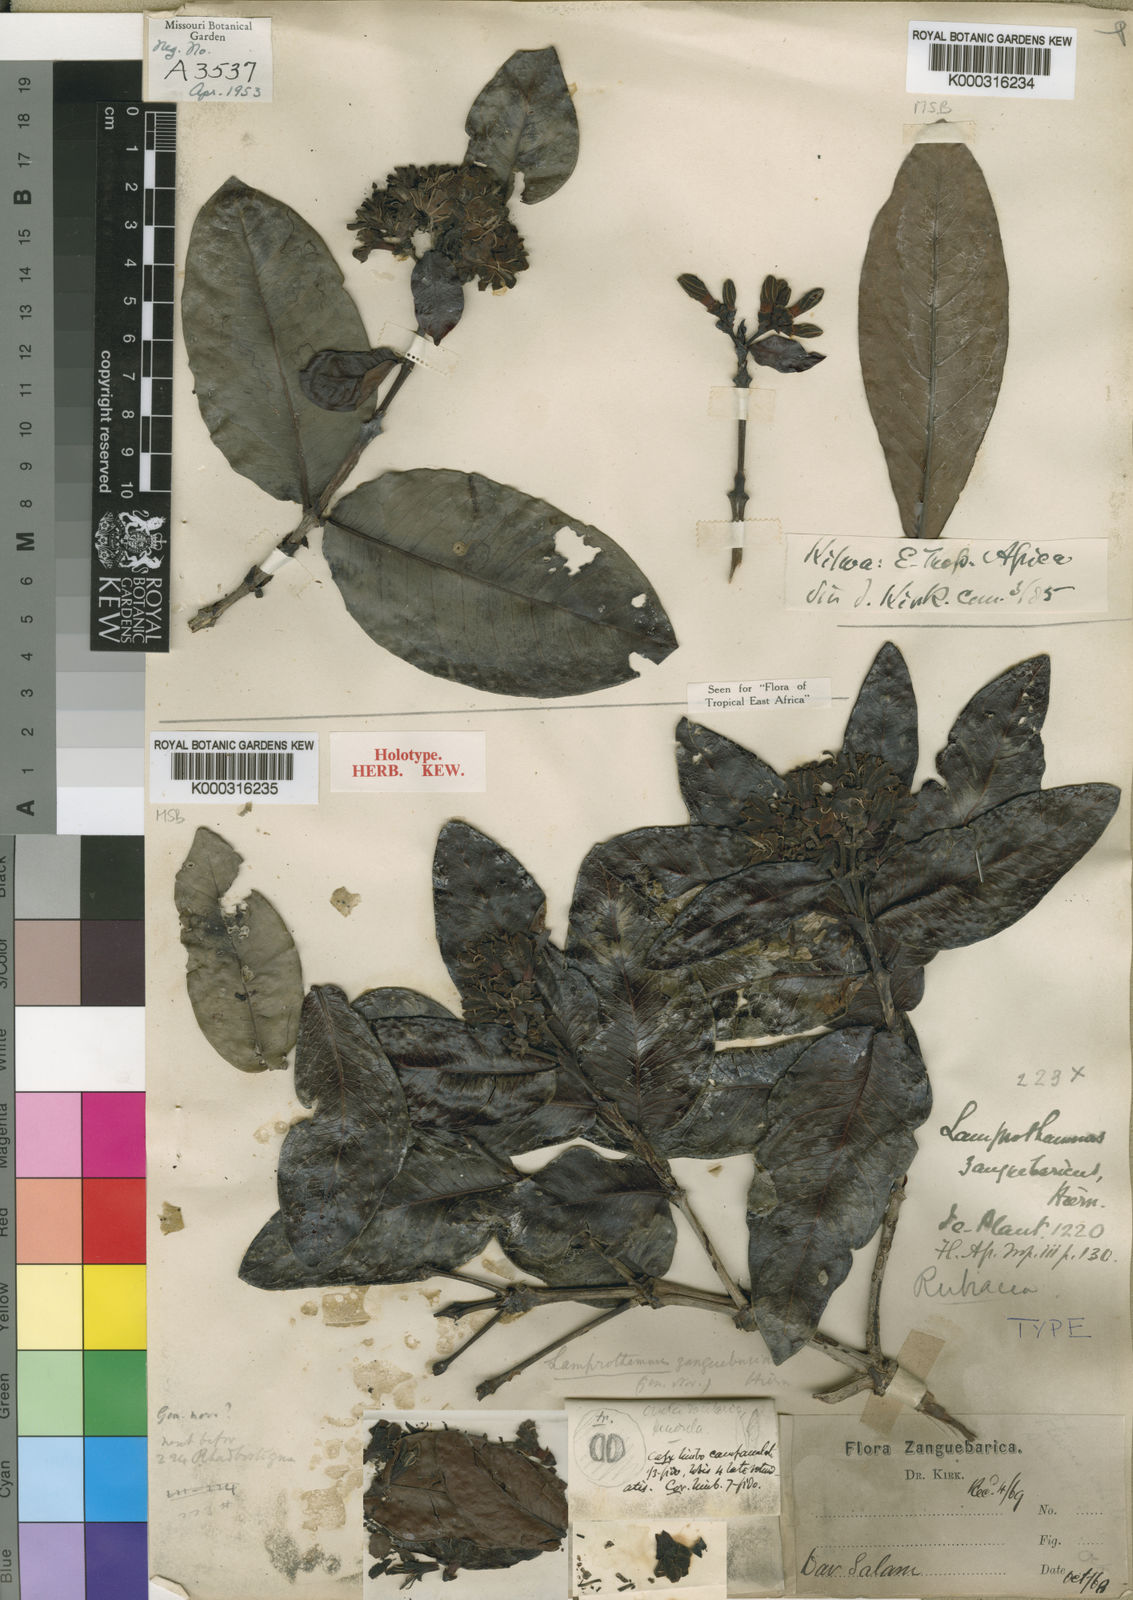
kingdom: Plantae
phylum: Tracheophyta
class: Magnoliopsida
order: Gentianales
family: Rubiaceae
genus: Lamprothamnus
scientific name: Lamprothamnus zanguebaricus
